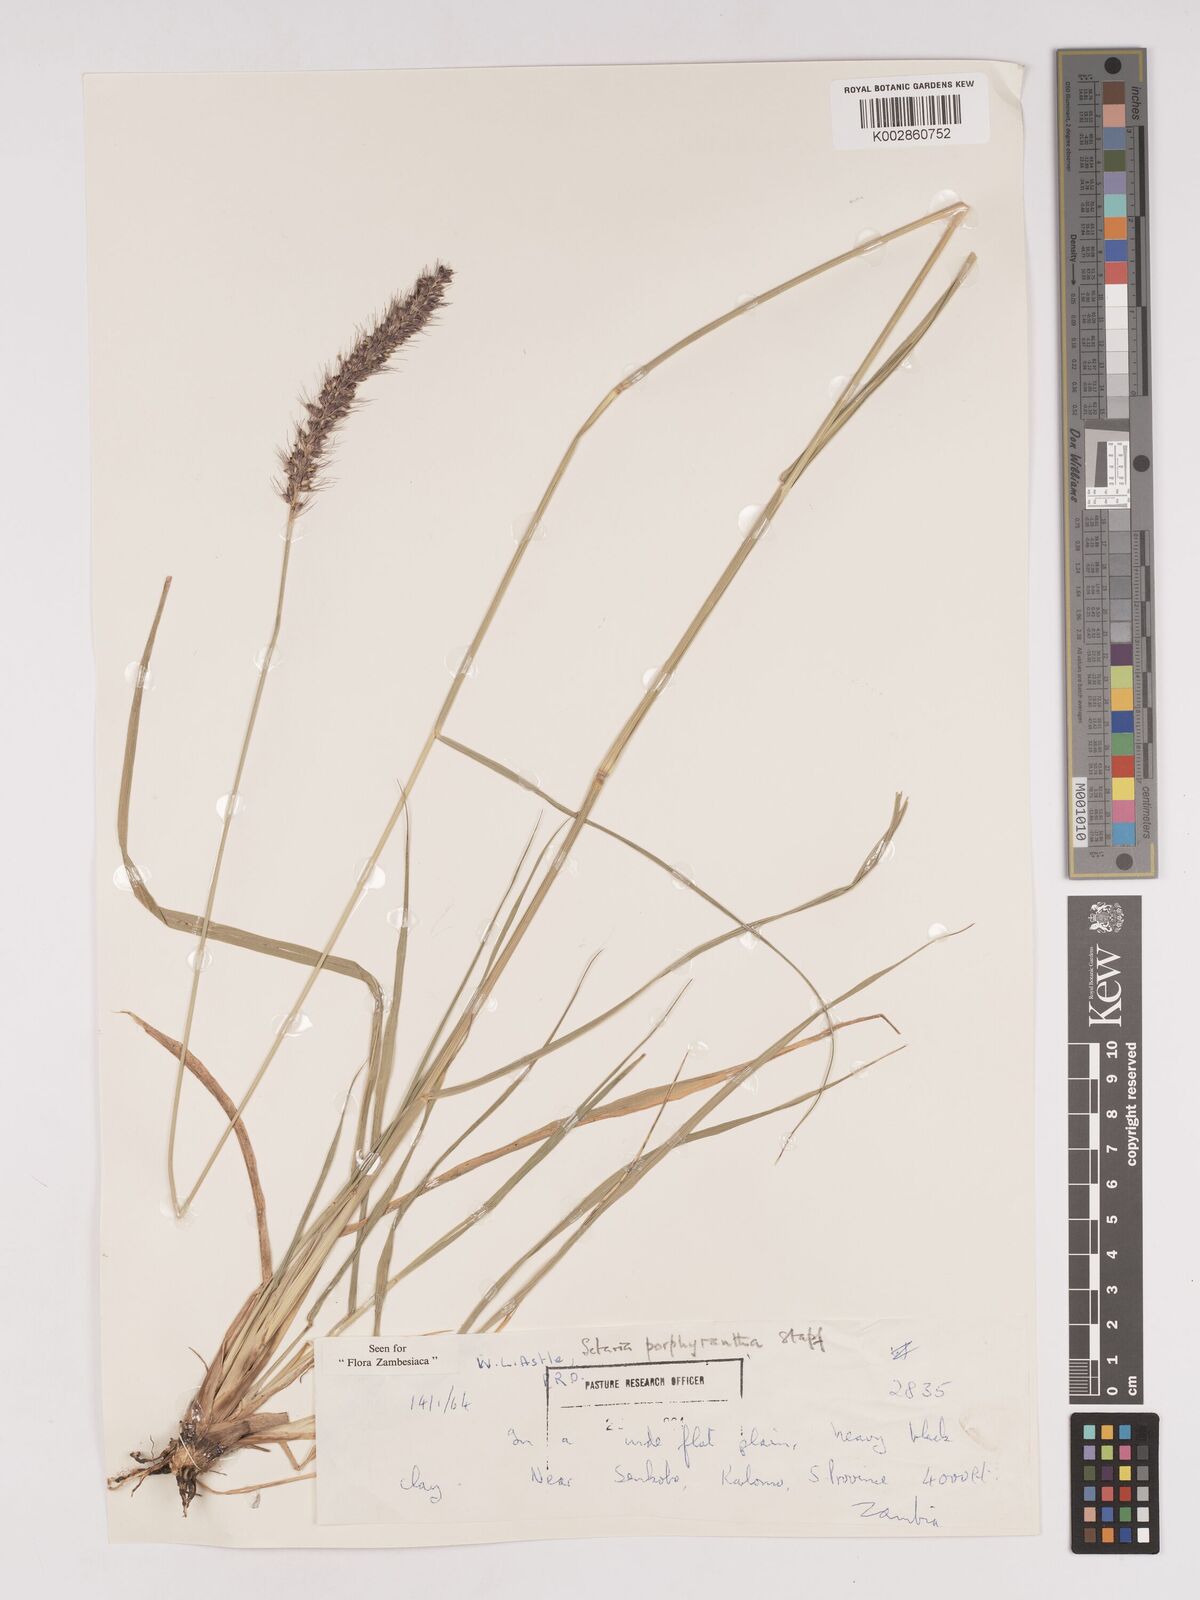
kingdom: Plantae
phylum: Tracheophyta
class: Liliopsida
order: Poales
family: Poaceae
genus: Setaria
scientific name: Setaria incrassata
